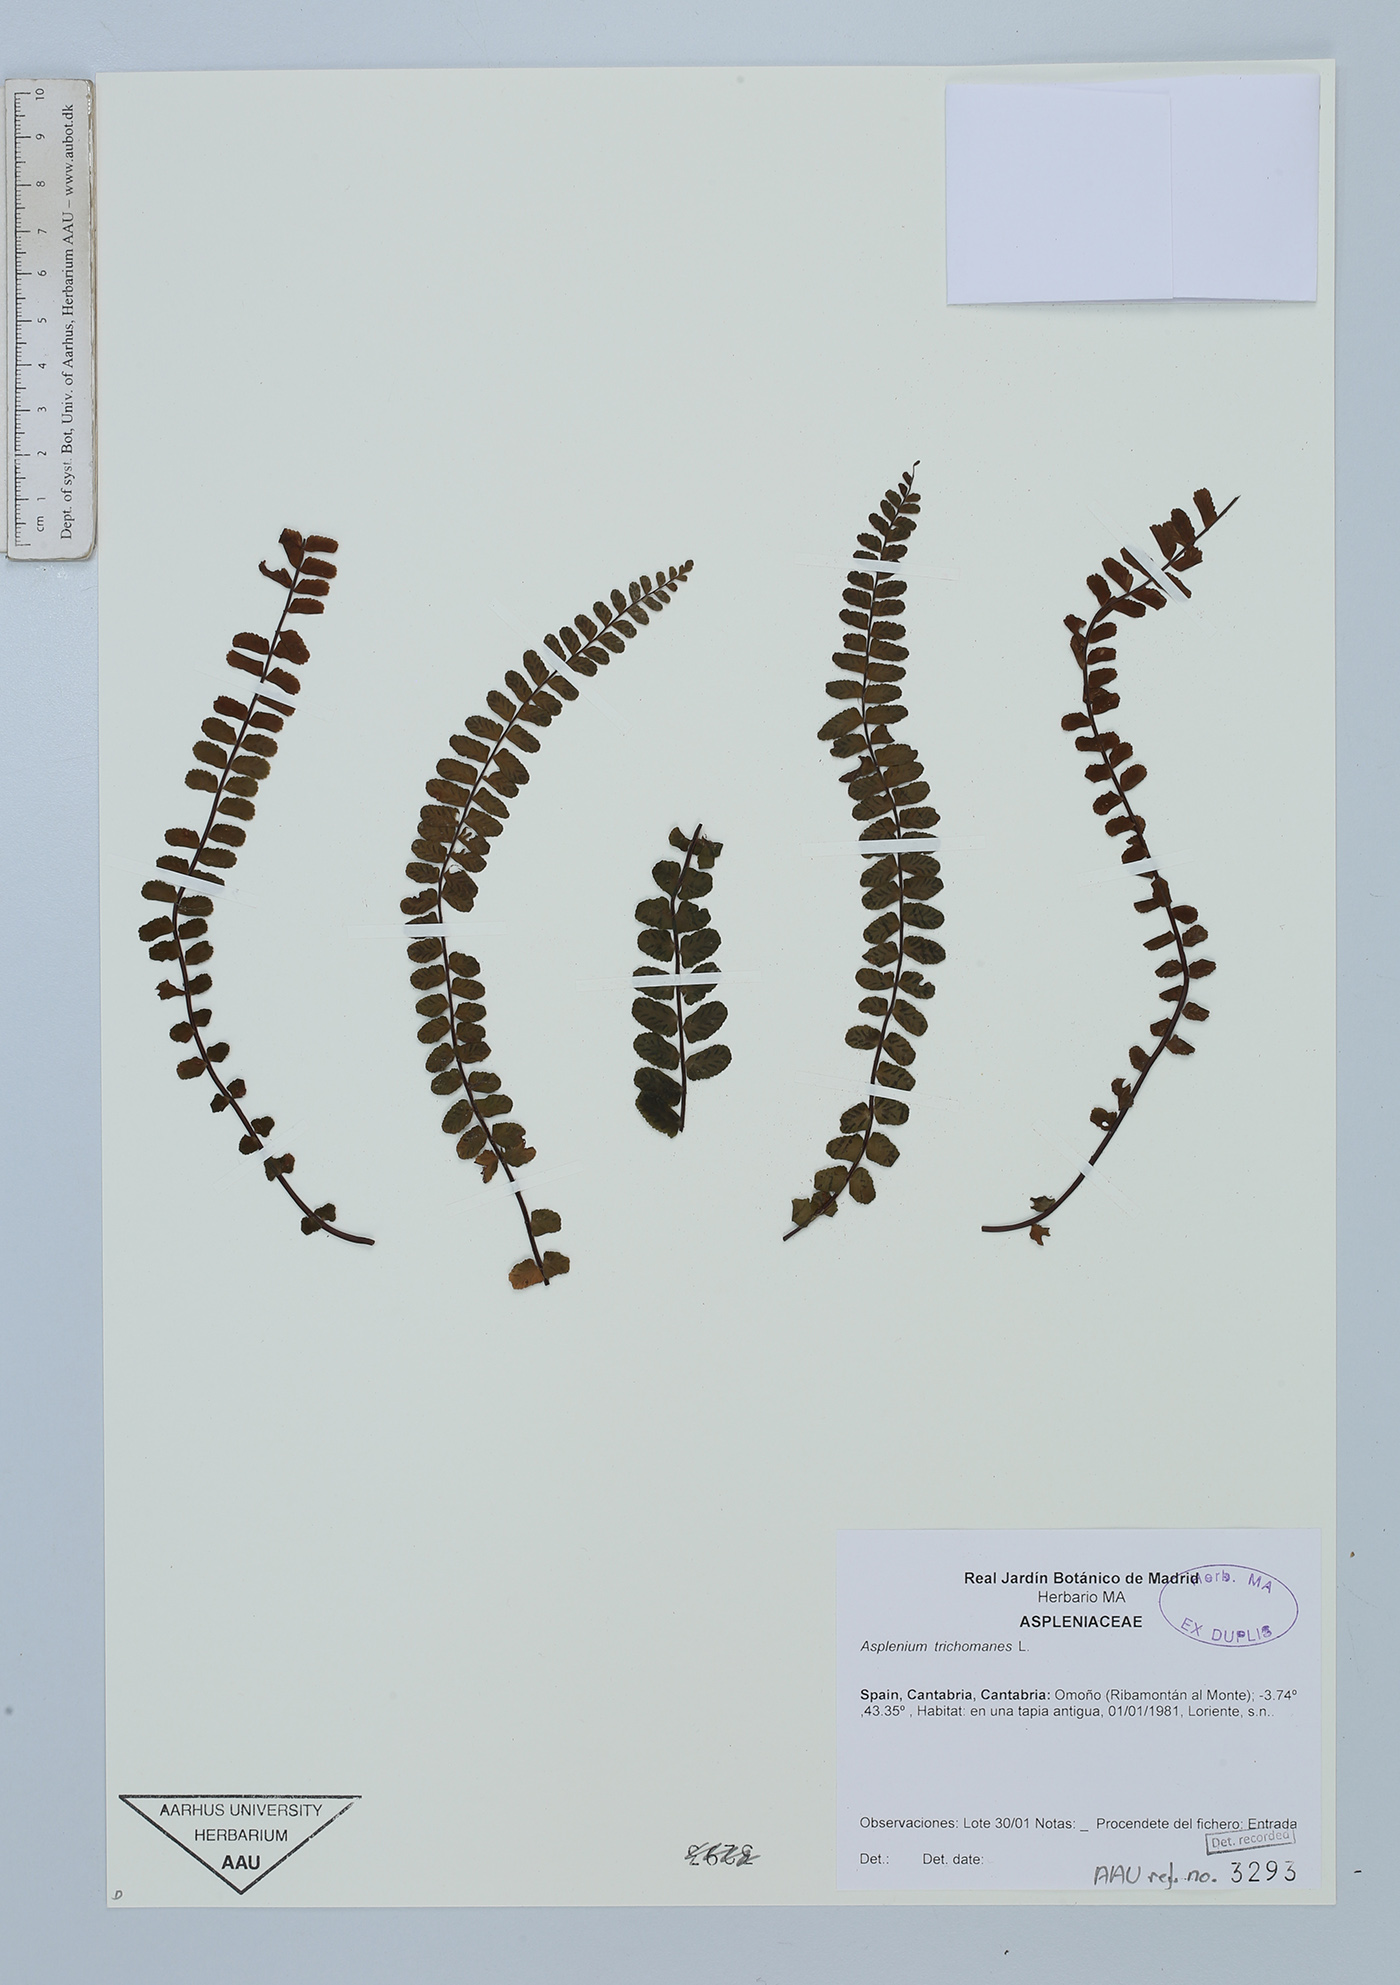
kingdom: Plantae
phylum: Tracheophyta
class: Polypodiopsida
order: Polypodiales
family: Aspleniaceae
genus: Asplenium
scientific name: Asplenium trichomanes
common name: Maidenhair spleenwort
